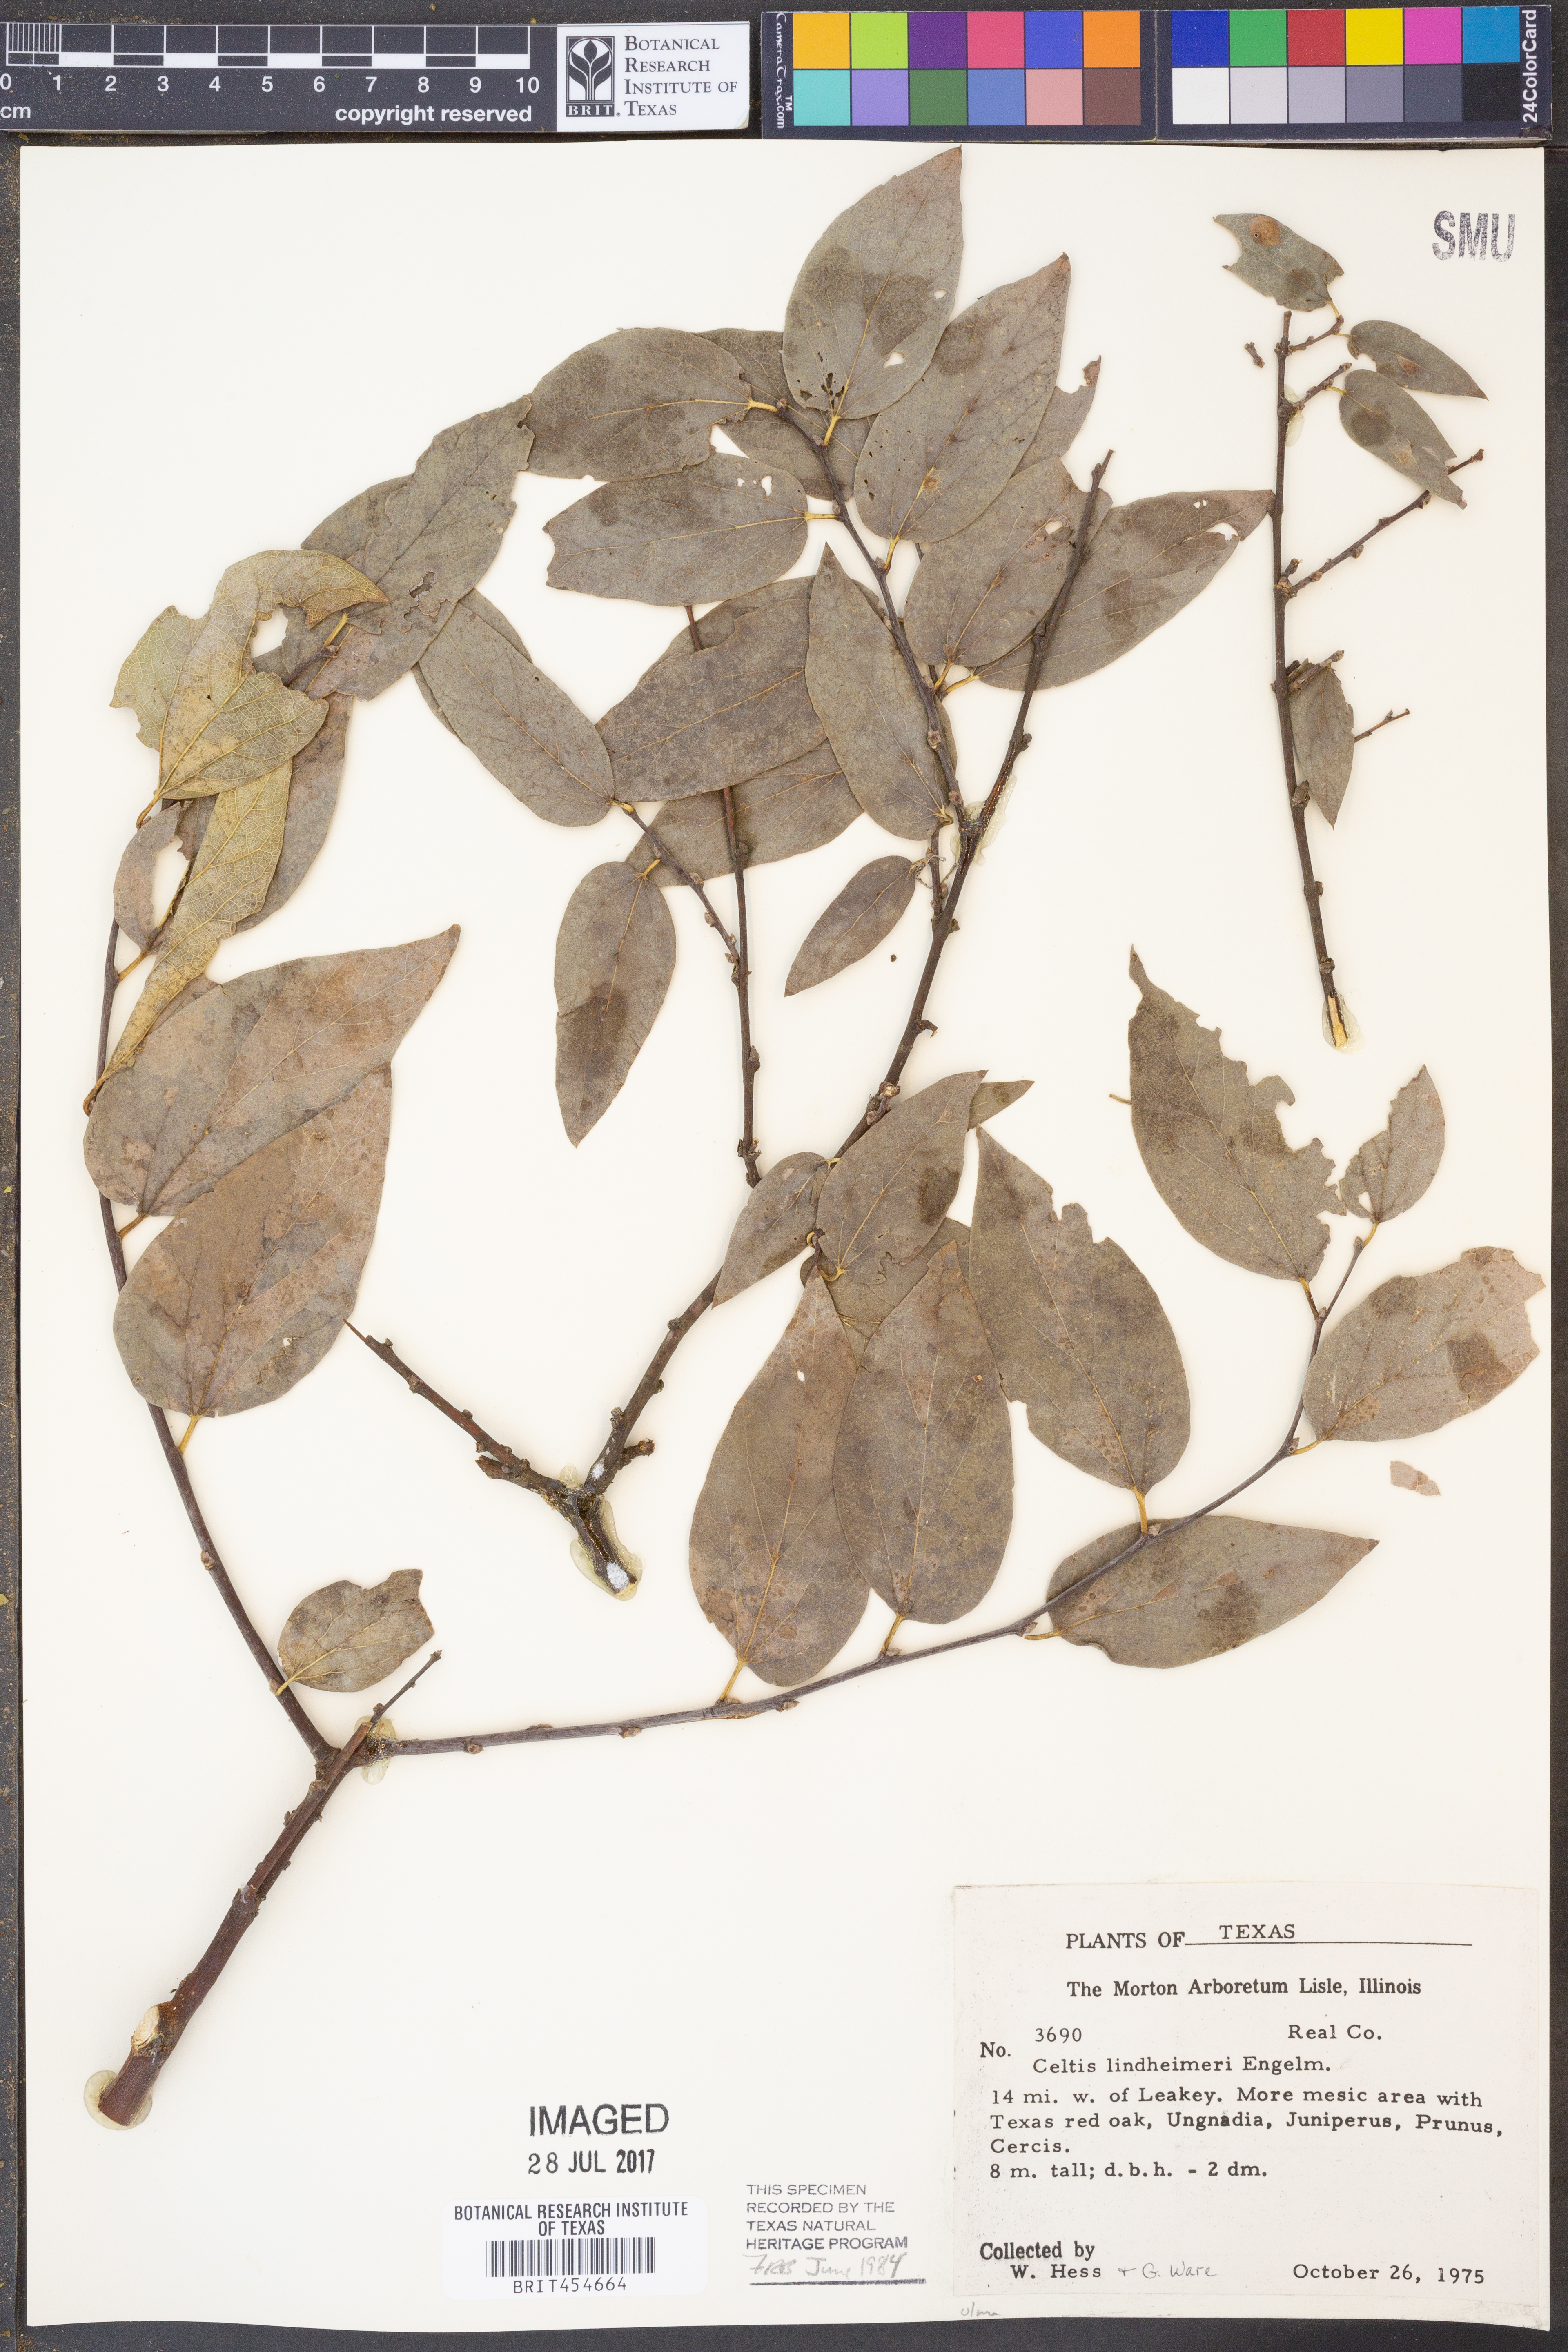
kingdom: Plantae
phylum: Tracheophyta
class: Magnoliopsida
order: Rosales
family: Cannabaceae
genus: Celtis
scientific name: Celtis lindheimeri
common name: Lindheimer hackberry
